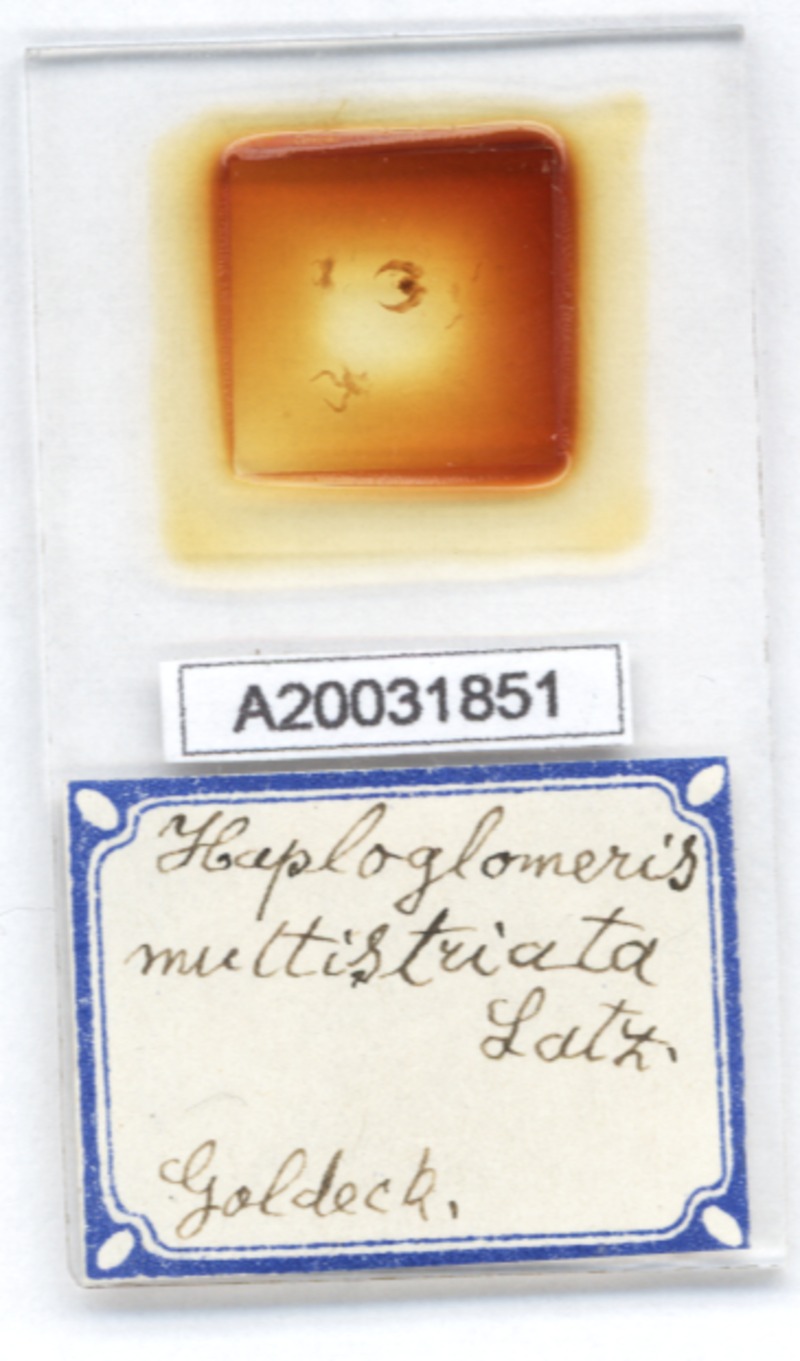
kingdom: Animalia
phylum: Arthropoda
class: Diplopoda
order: Glomerida
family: Glomeridae
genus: Haploglomeris
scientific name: Haploglomeris multistriata
